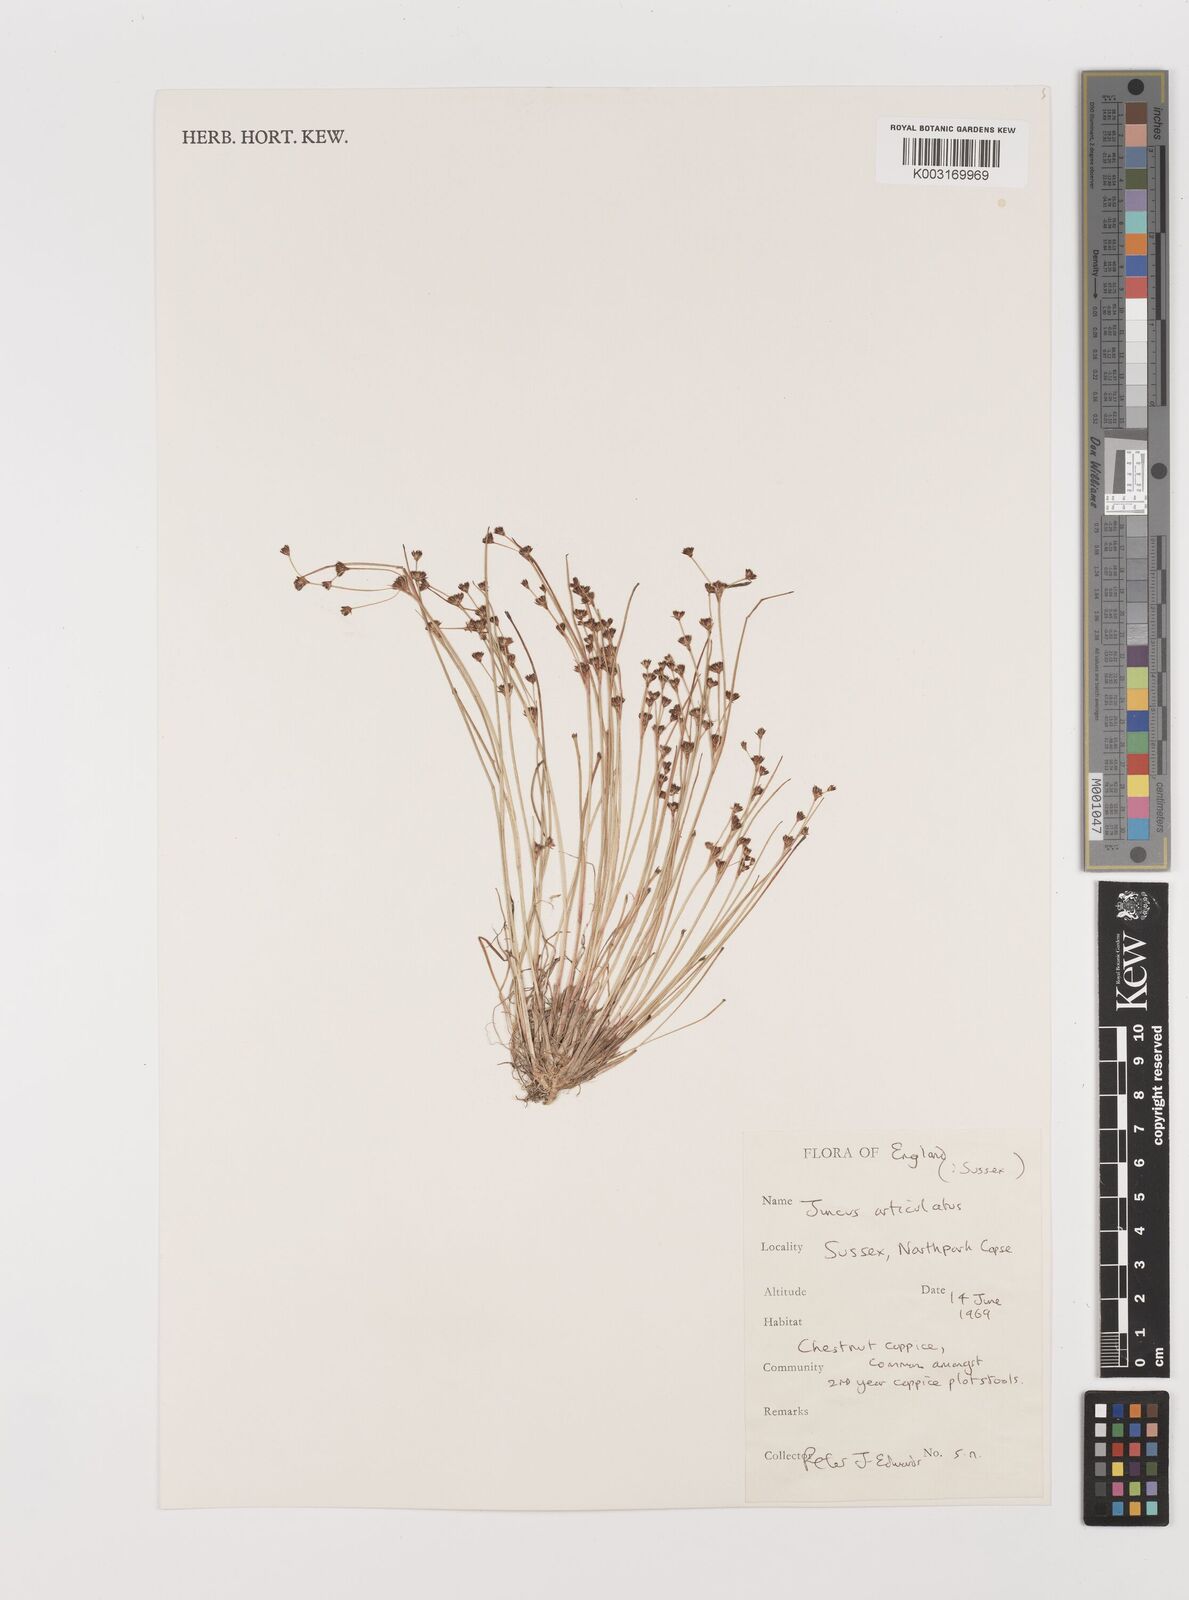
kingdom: Plantae
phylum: Tracheophyta
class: Liliopsida
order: Poales
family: Juncaceae
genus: Juncus
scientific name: Juncus articulatus
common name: Jointed rush
